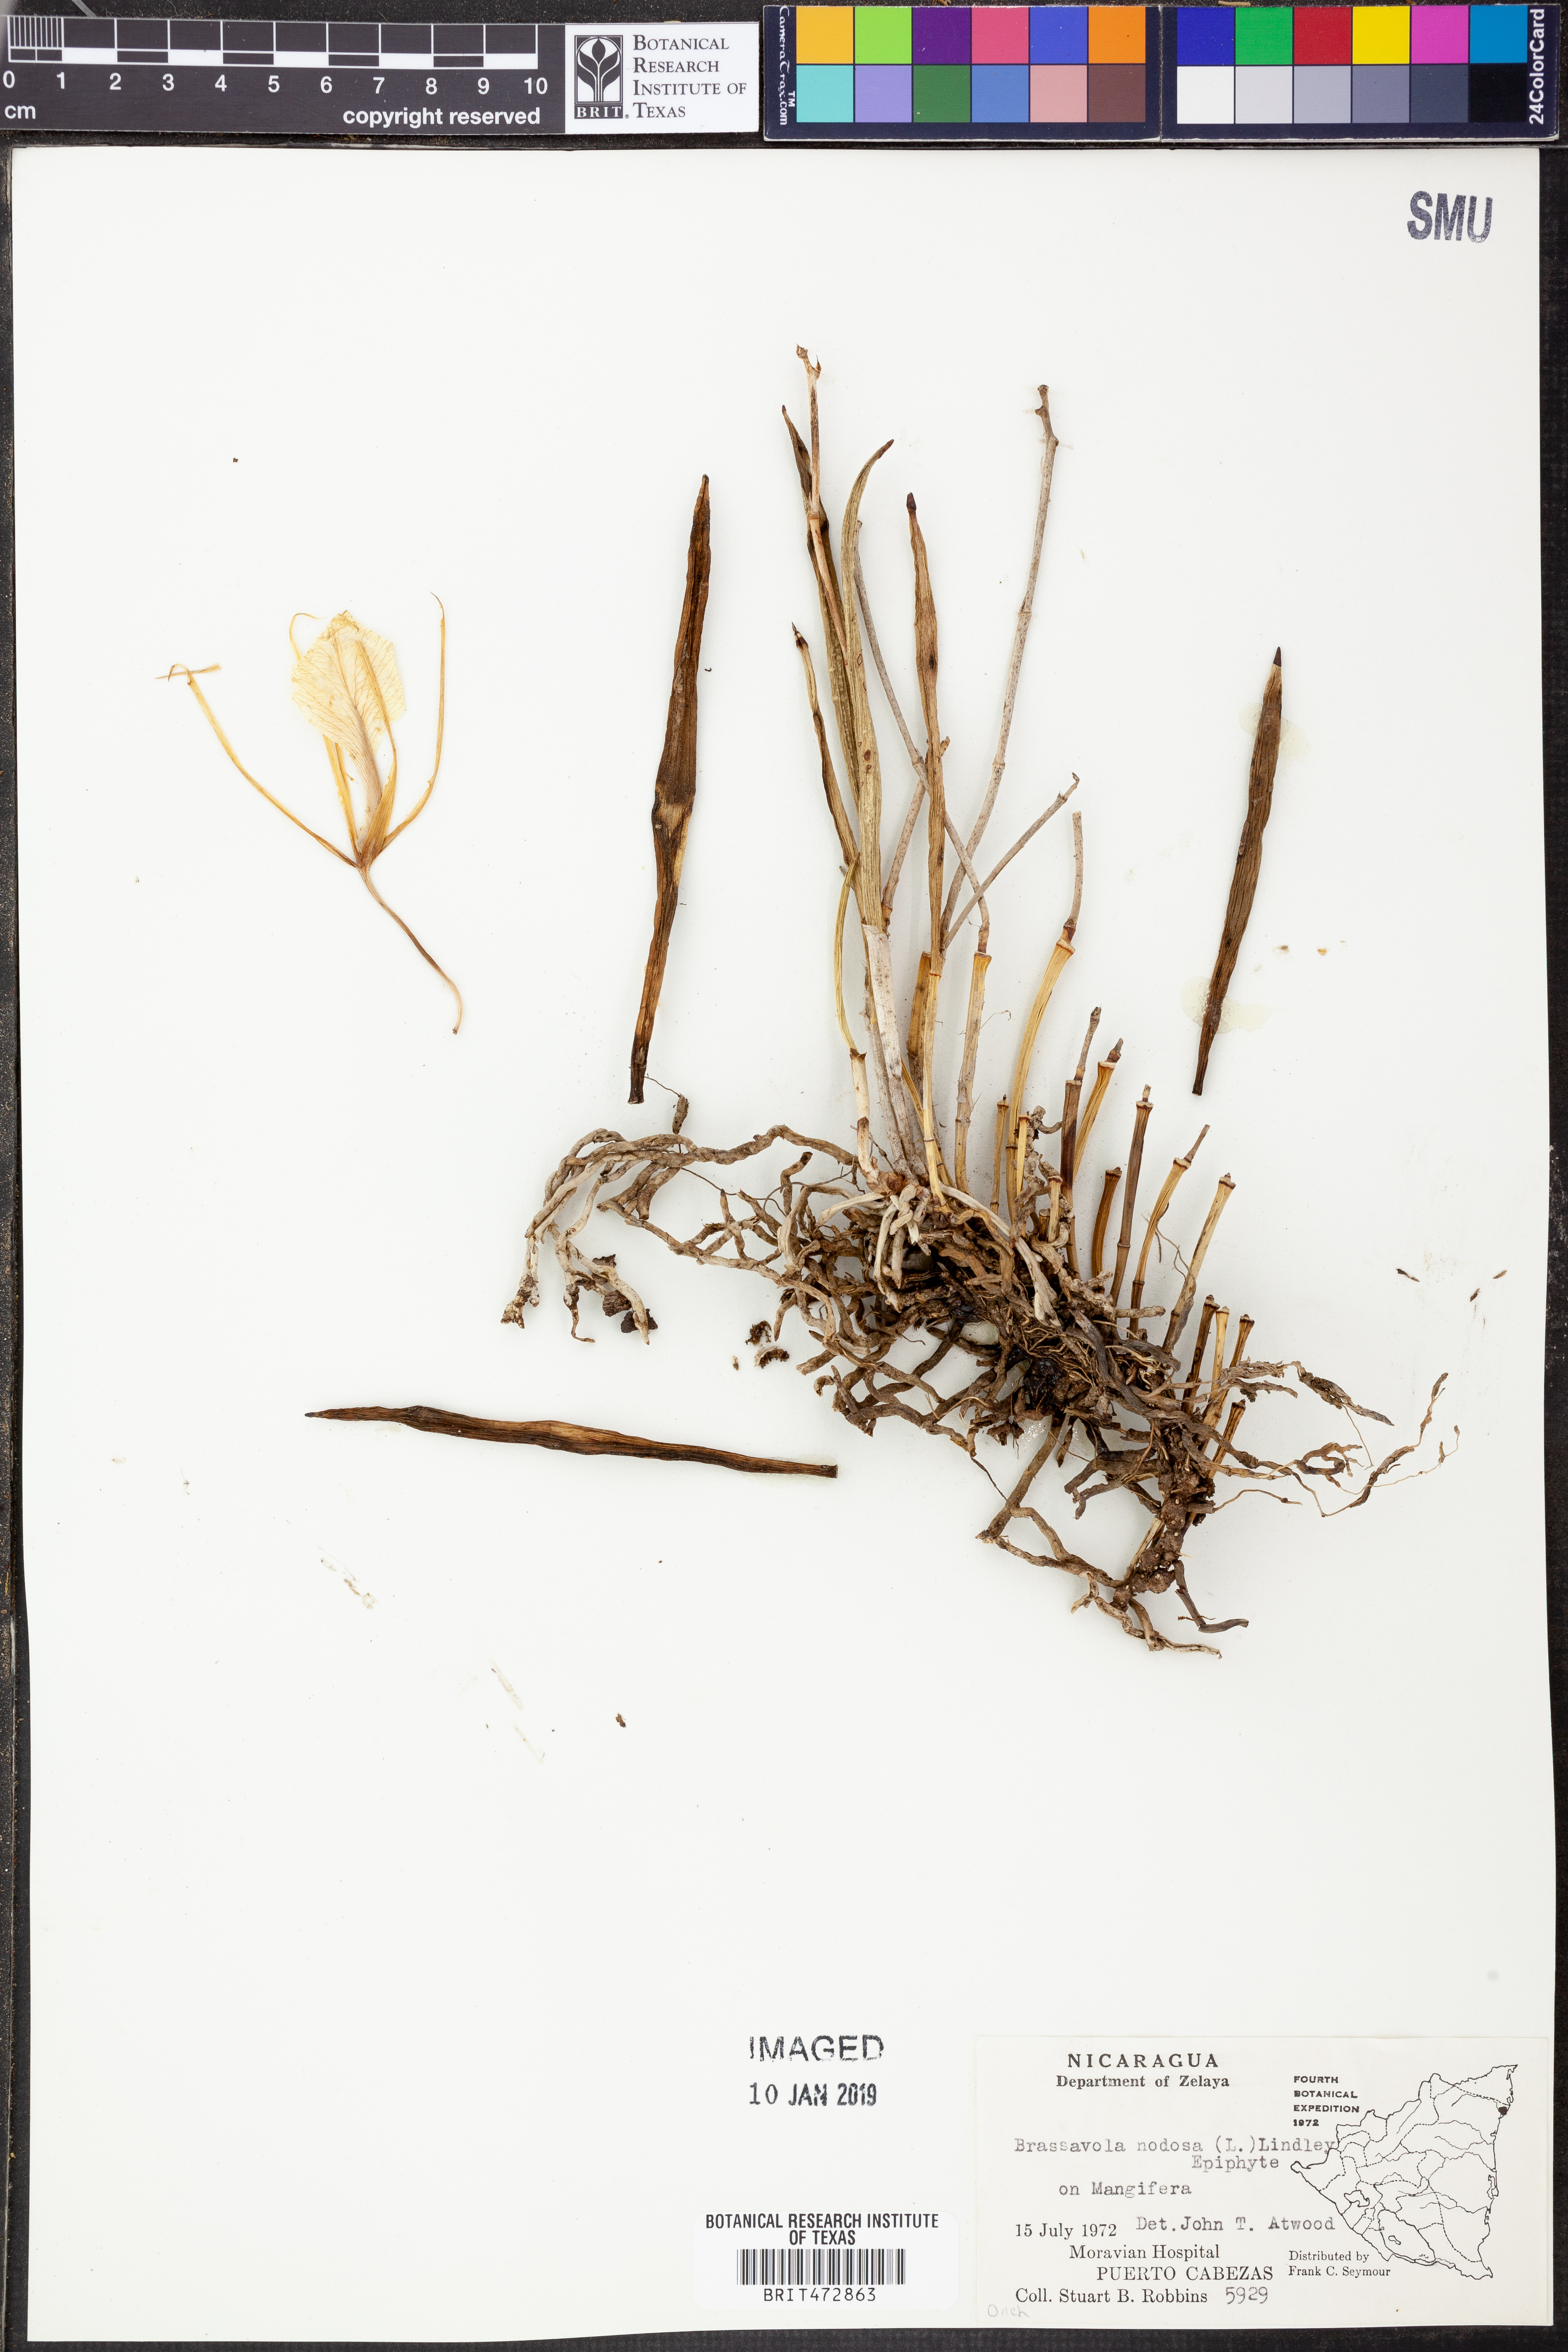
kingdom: Plantae
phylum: Tracheophyta
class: Liliopsida
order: Asparagales
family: Orchidaceae
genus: Brassavola
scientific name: Brassavola nodosa
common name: Lady of the night
